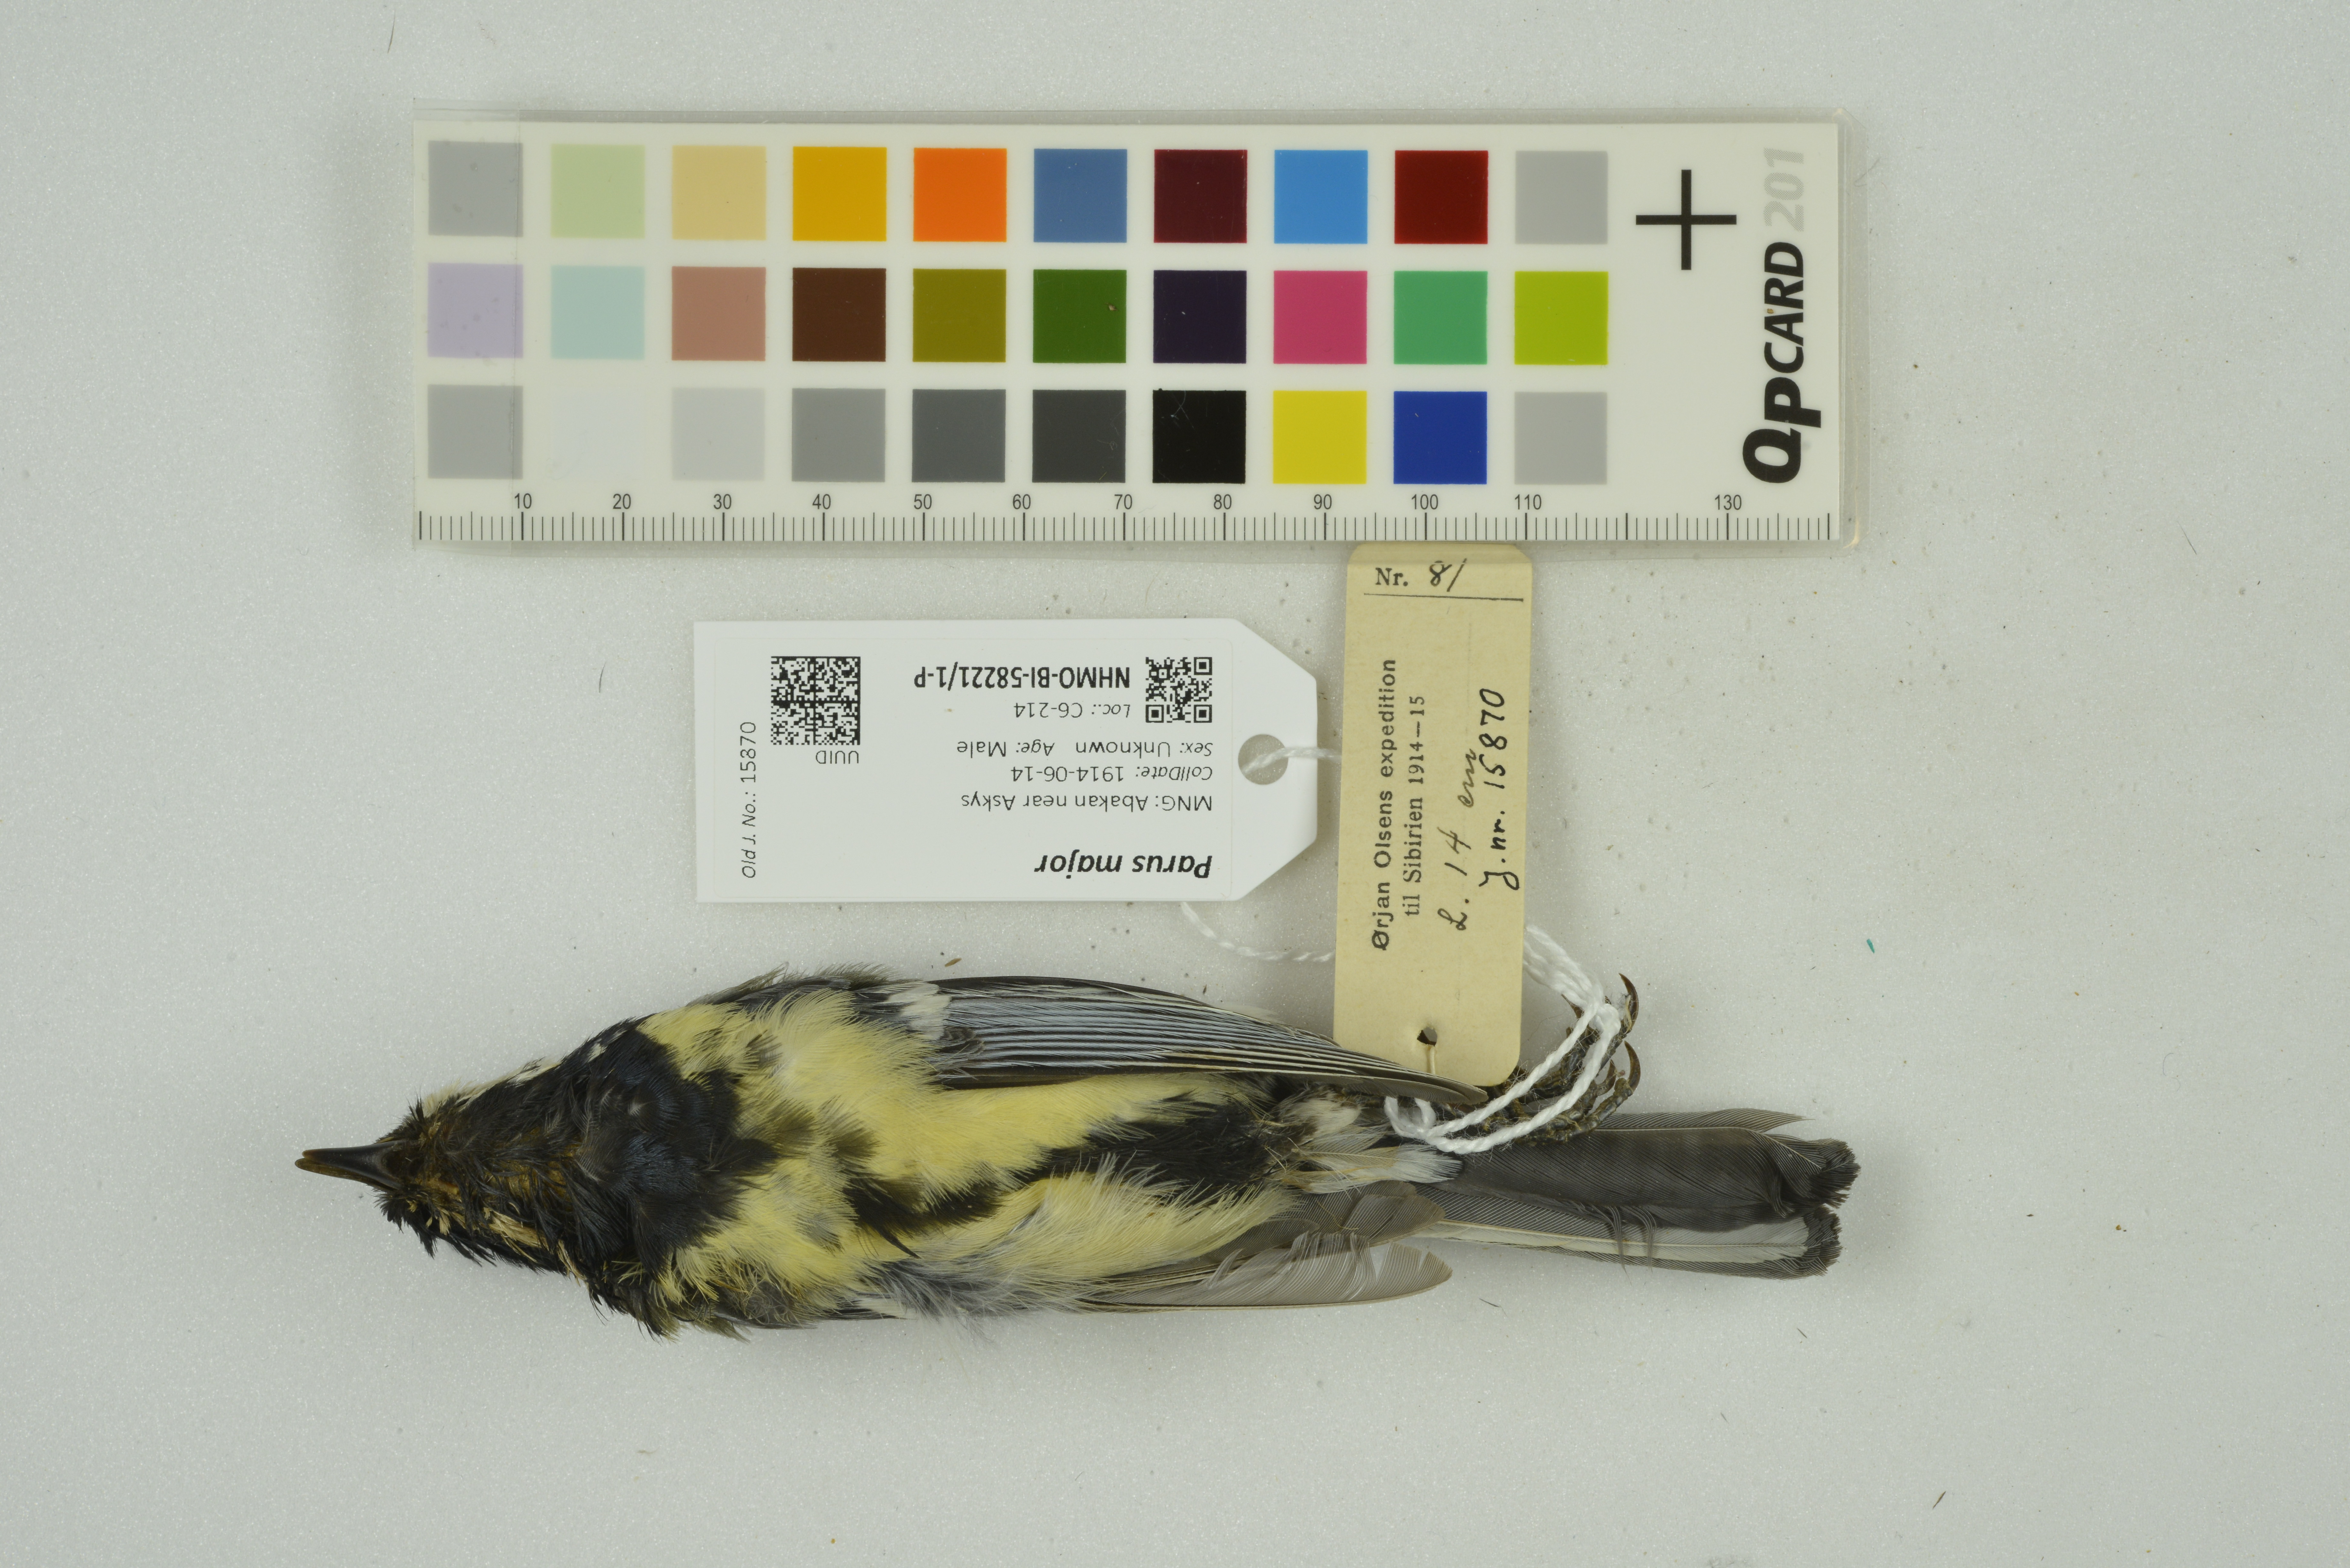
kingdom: Animalia
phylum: Chordata
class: Aves
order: Passeriformes
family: Paridae
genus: Parus
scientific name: Parus major
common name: Great tit
